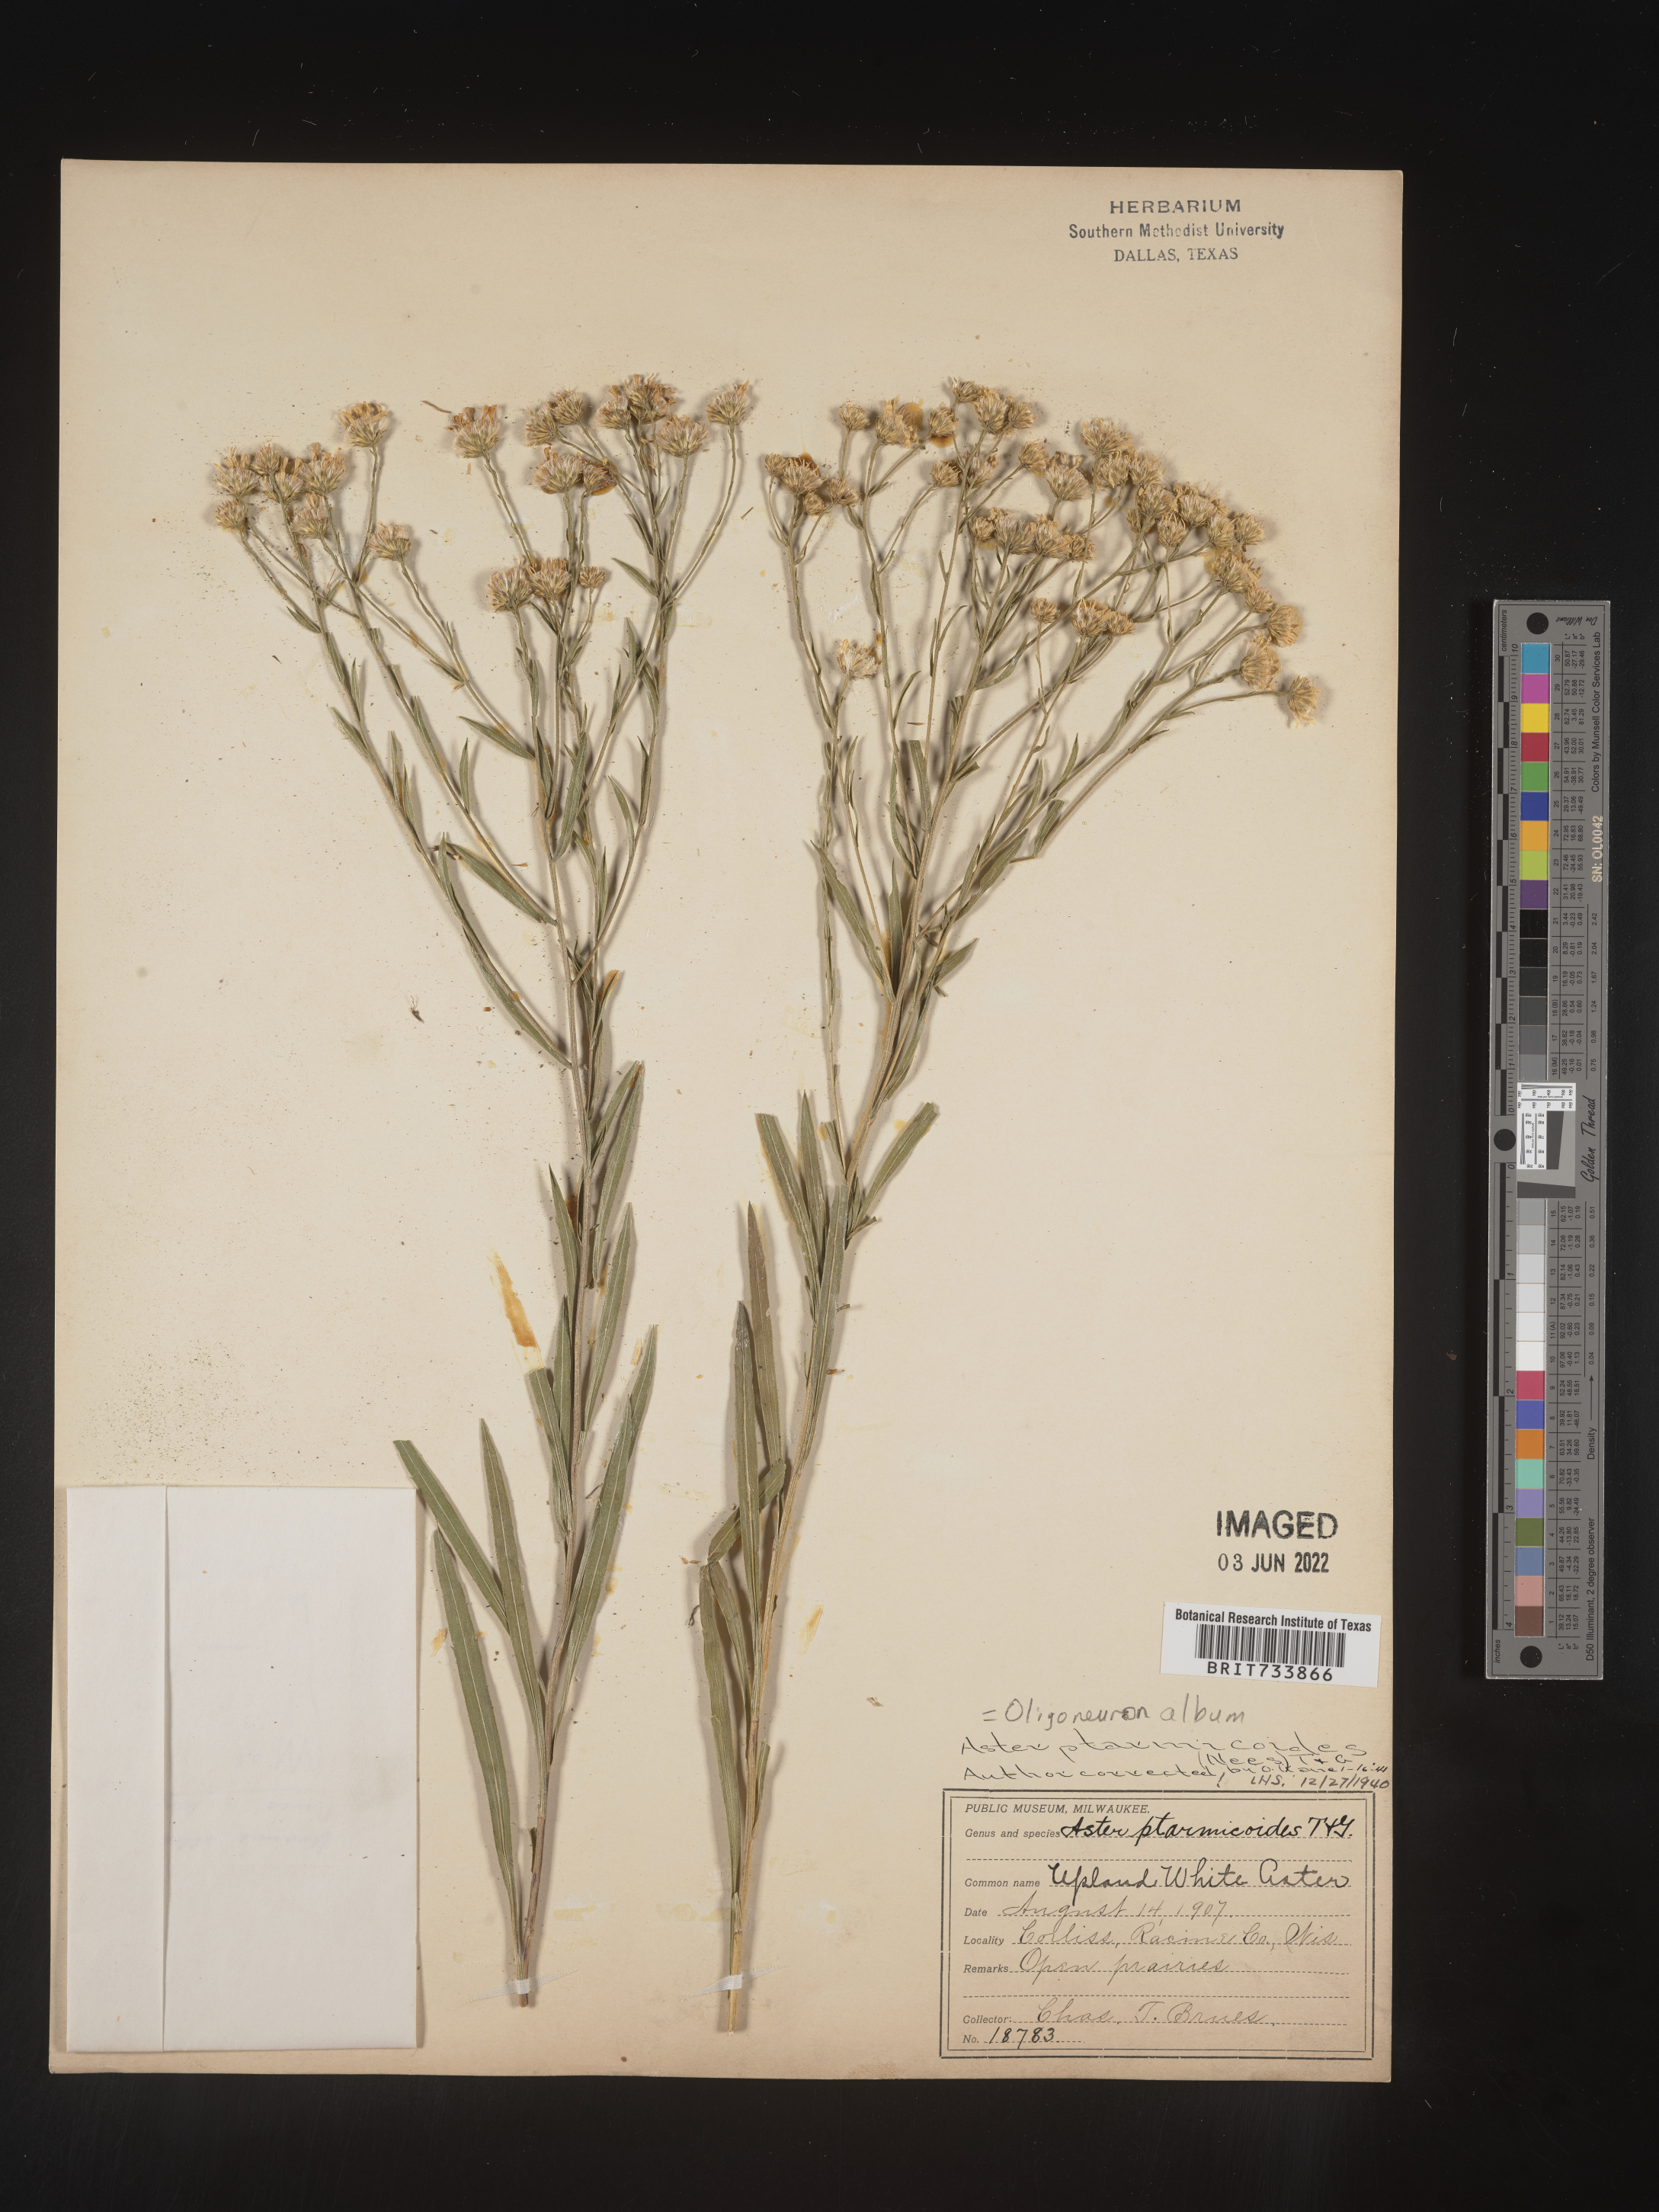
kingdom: Plantae
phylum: Tracheophyta
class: Magnoliopsida
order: Asterales
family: Asteraceae
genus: Solidago
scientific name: Solidago ptarmicoides
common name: White flat-top goldenrod
